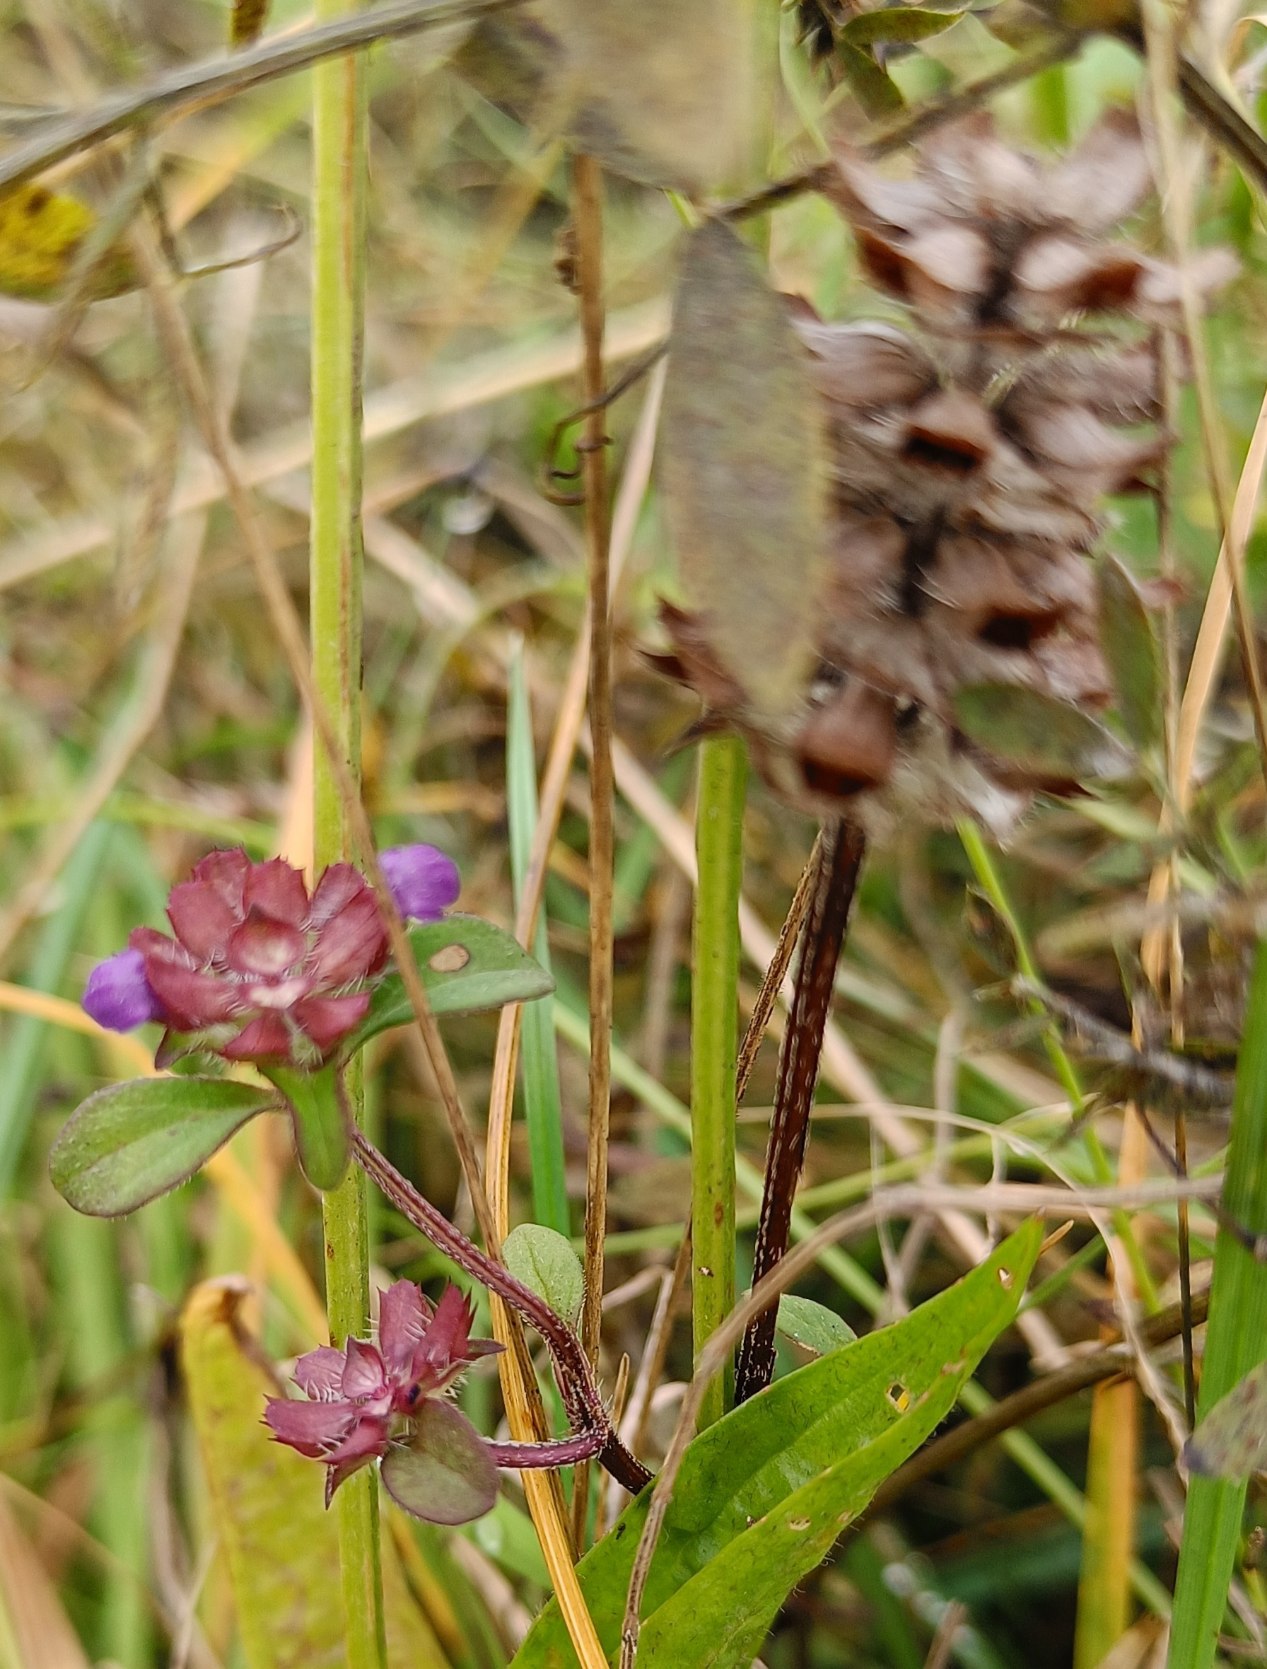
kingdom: Plantae
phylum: Tracheophyta
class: Magnoliopsida
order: Lamiales
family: Lamiaceae
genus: Prunella
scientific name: Prunella vulgaris
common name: Almindelig brunelle
